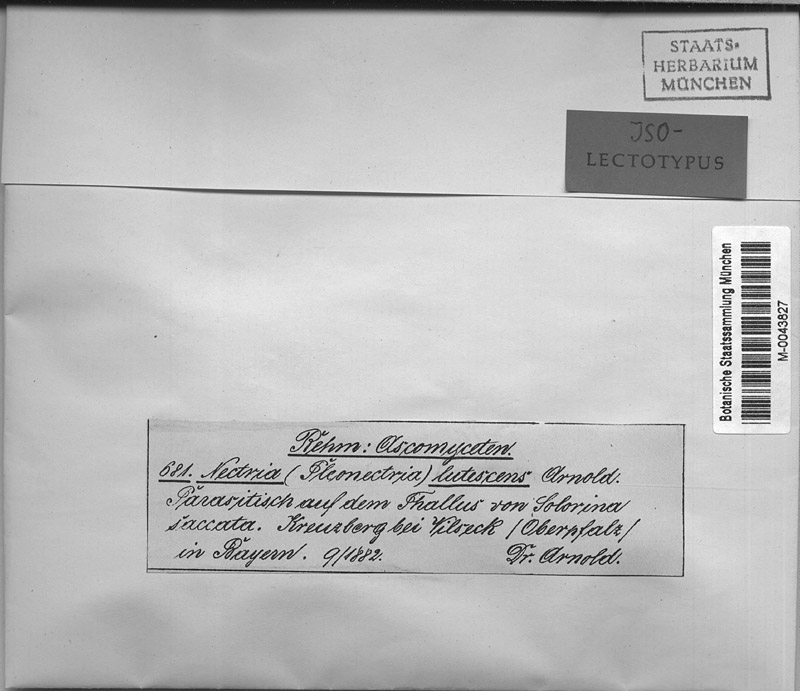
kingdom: Fungi
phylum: Ascomycota
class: Sordariomycetes
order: Hypocreales
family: Nectriaceae
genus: Xenonectriella
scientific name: Xenonectriella lutescens
